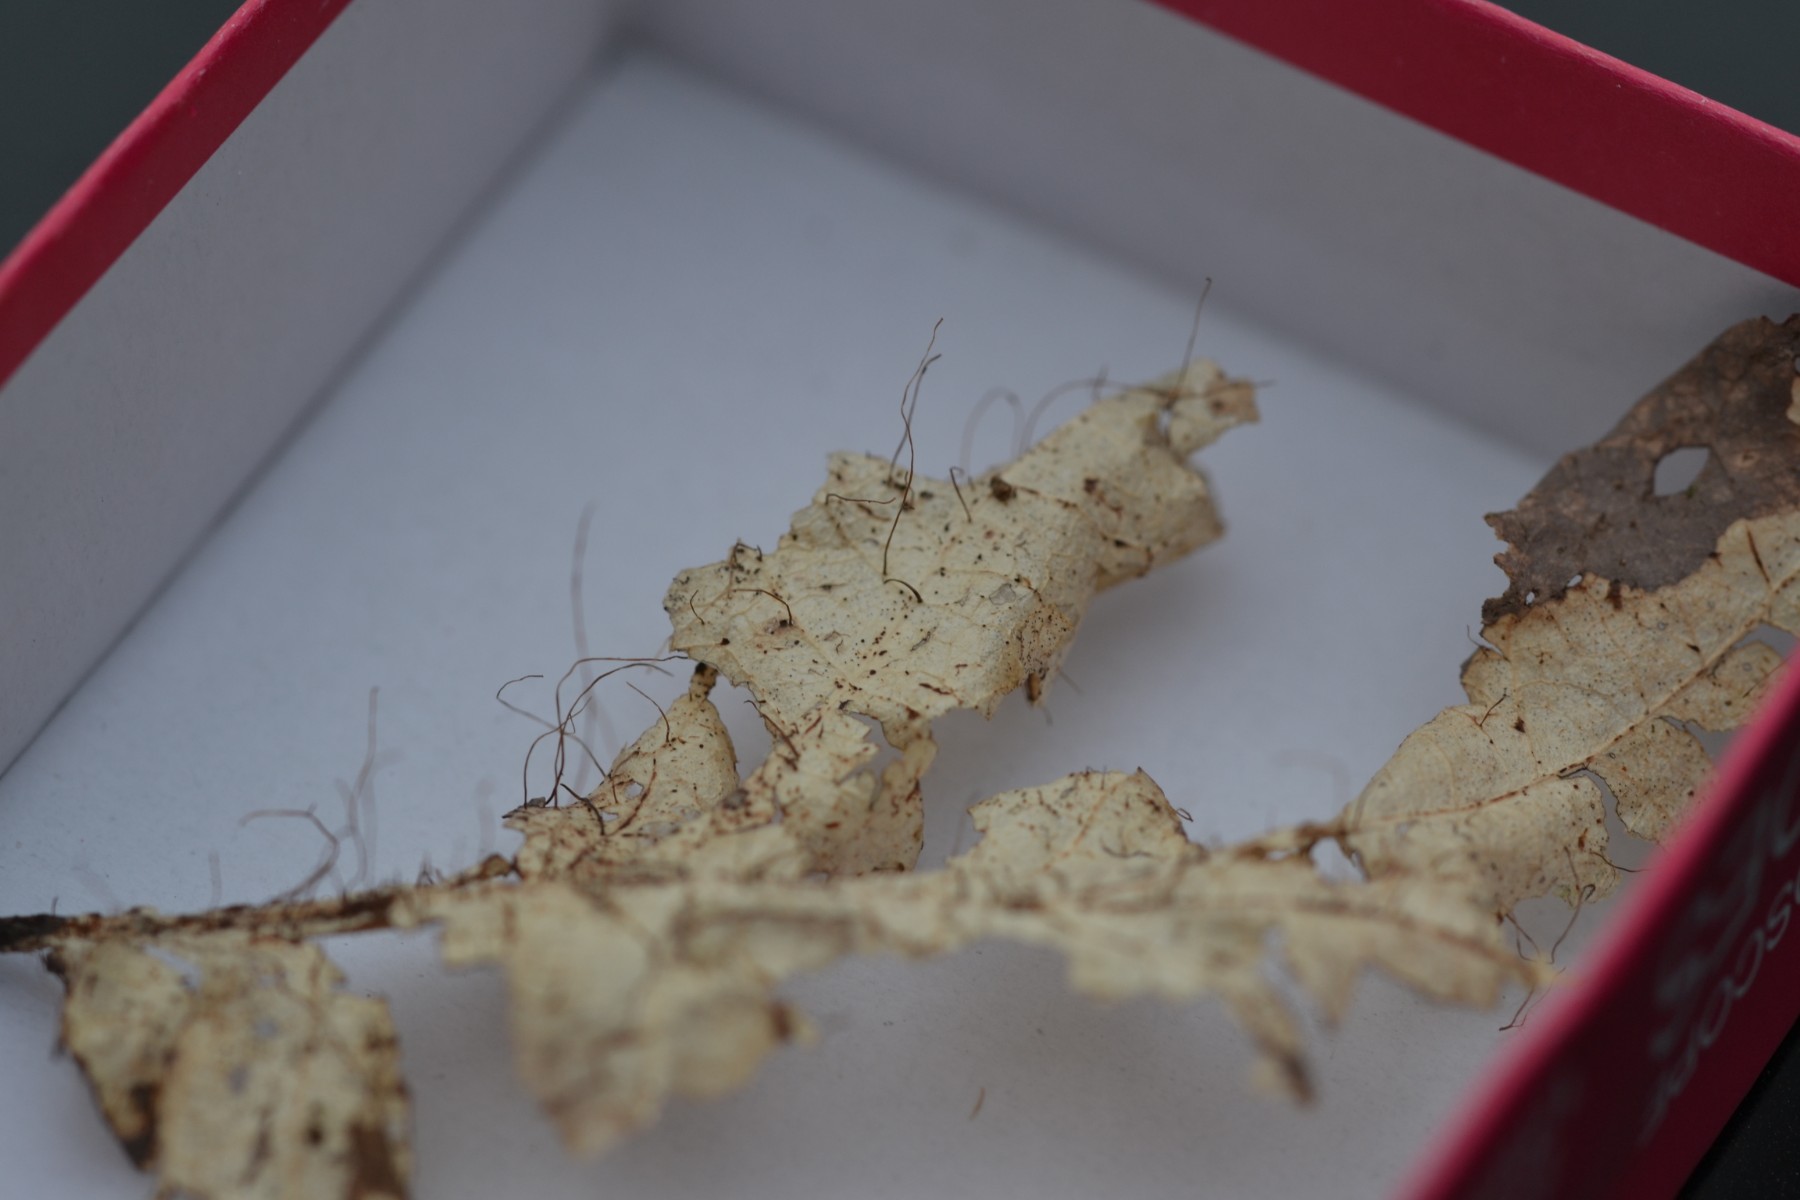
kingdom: Fungi
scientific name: Fungi
